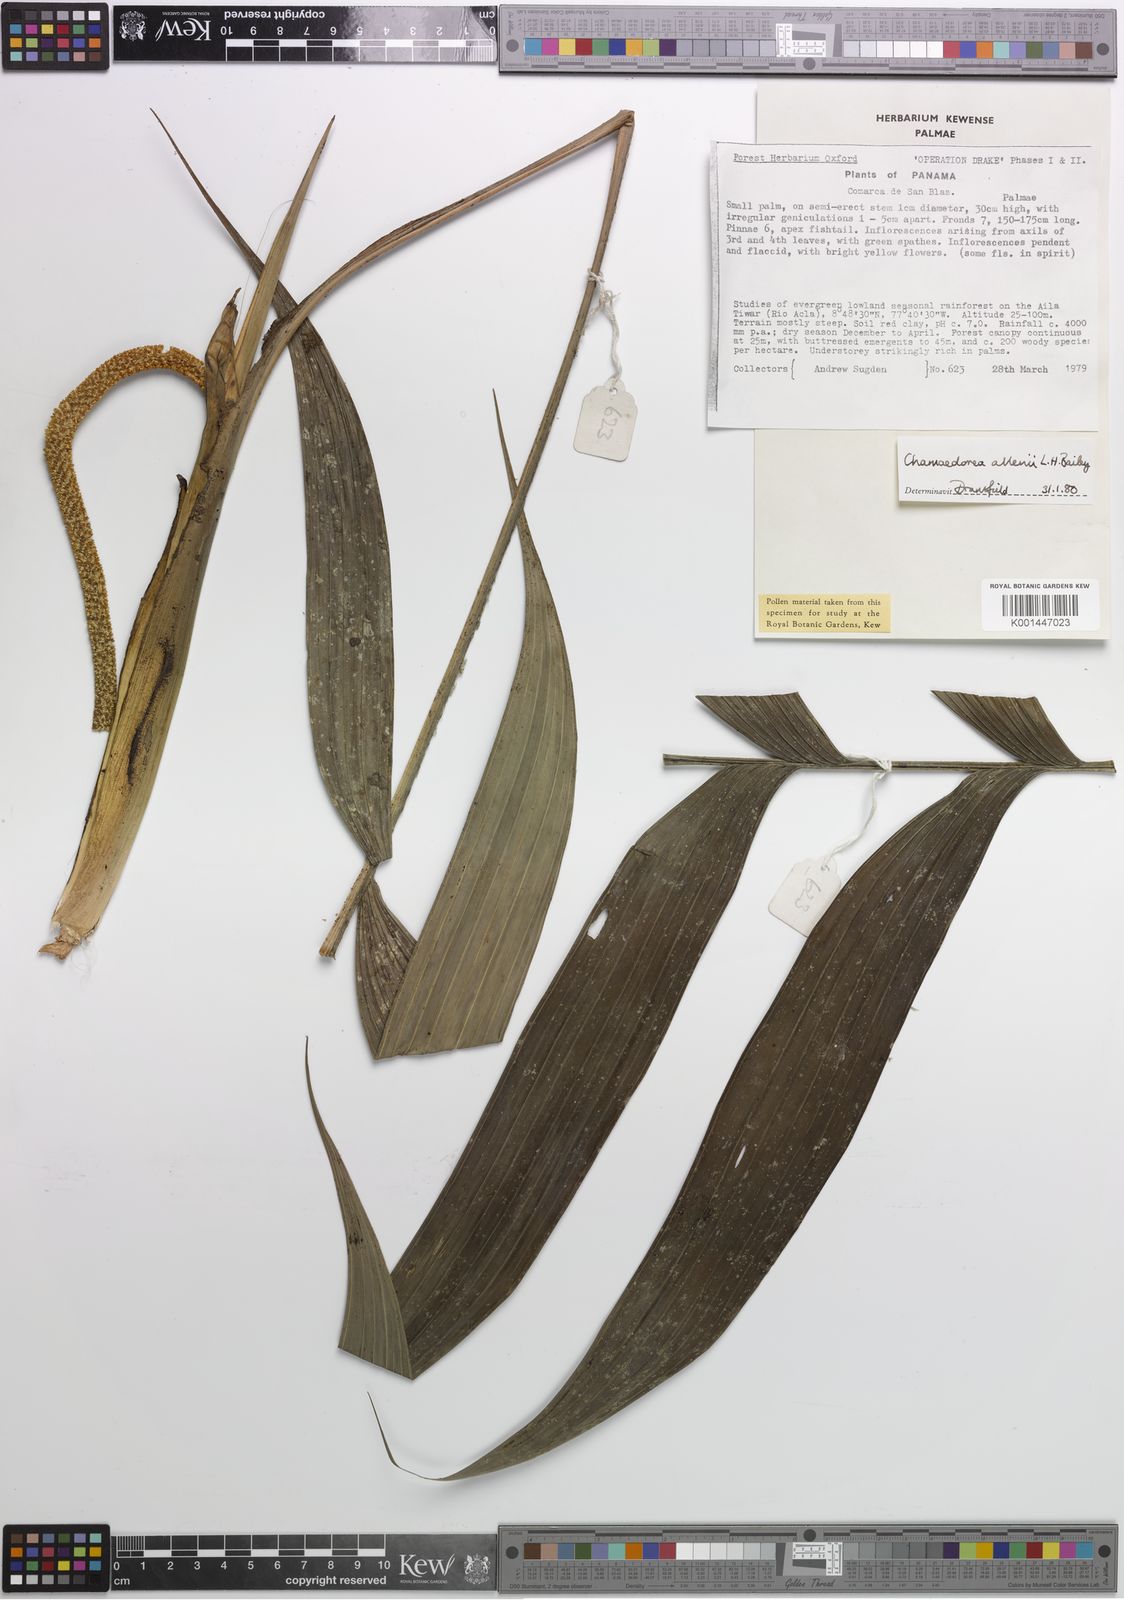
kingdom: Plantae
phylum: Tracheophyta
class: Liliopsida
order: Arecales
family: Arecaceae
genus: Chamaedorea
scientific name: Chamaedorea allenii
